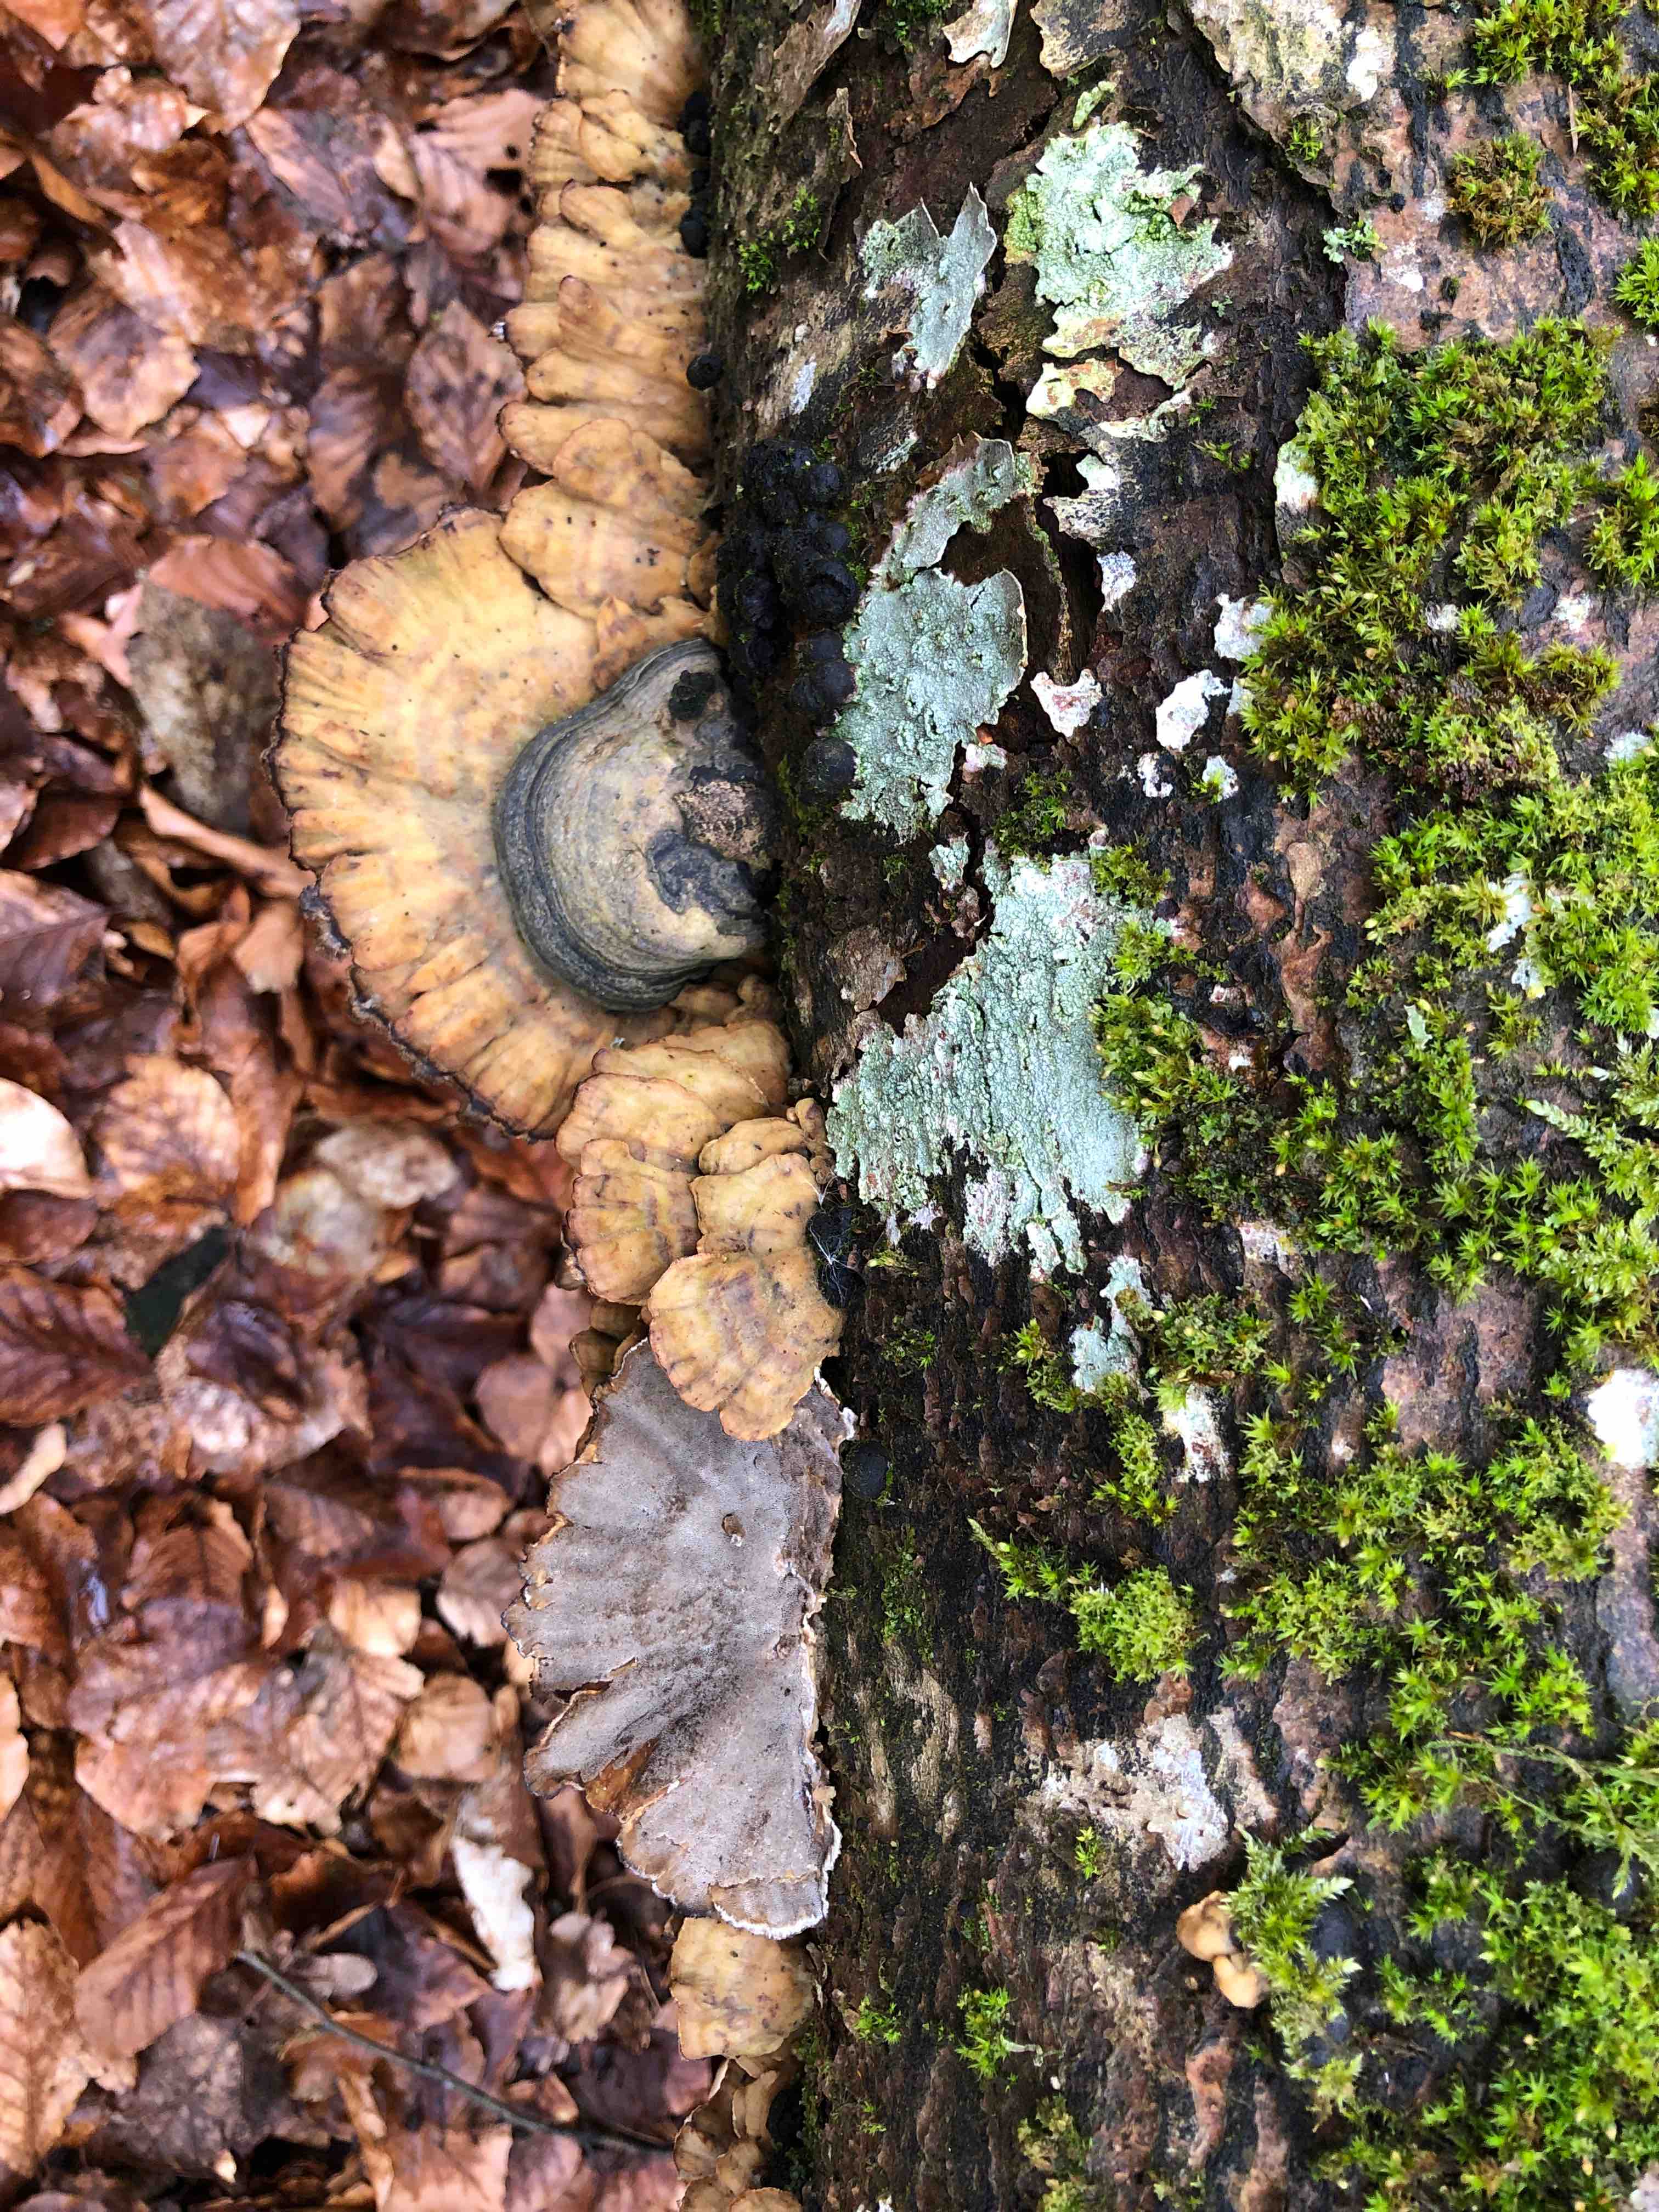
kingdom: Fungi
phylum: Basidiomycota
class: Agaricomycetes
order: Polyporales
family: Phanerochaetaceae
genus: Bjerkandera
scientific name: Bjerkandera adusta
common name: sveden sodporesvamp
